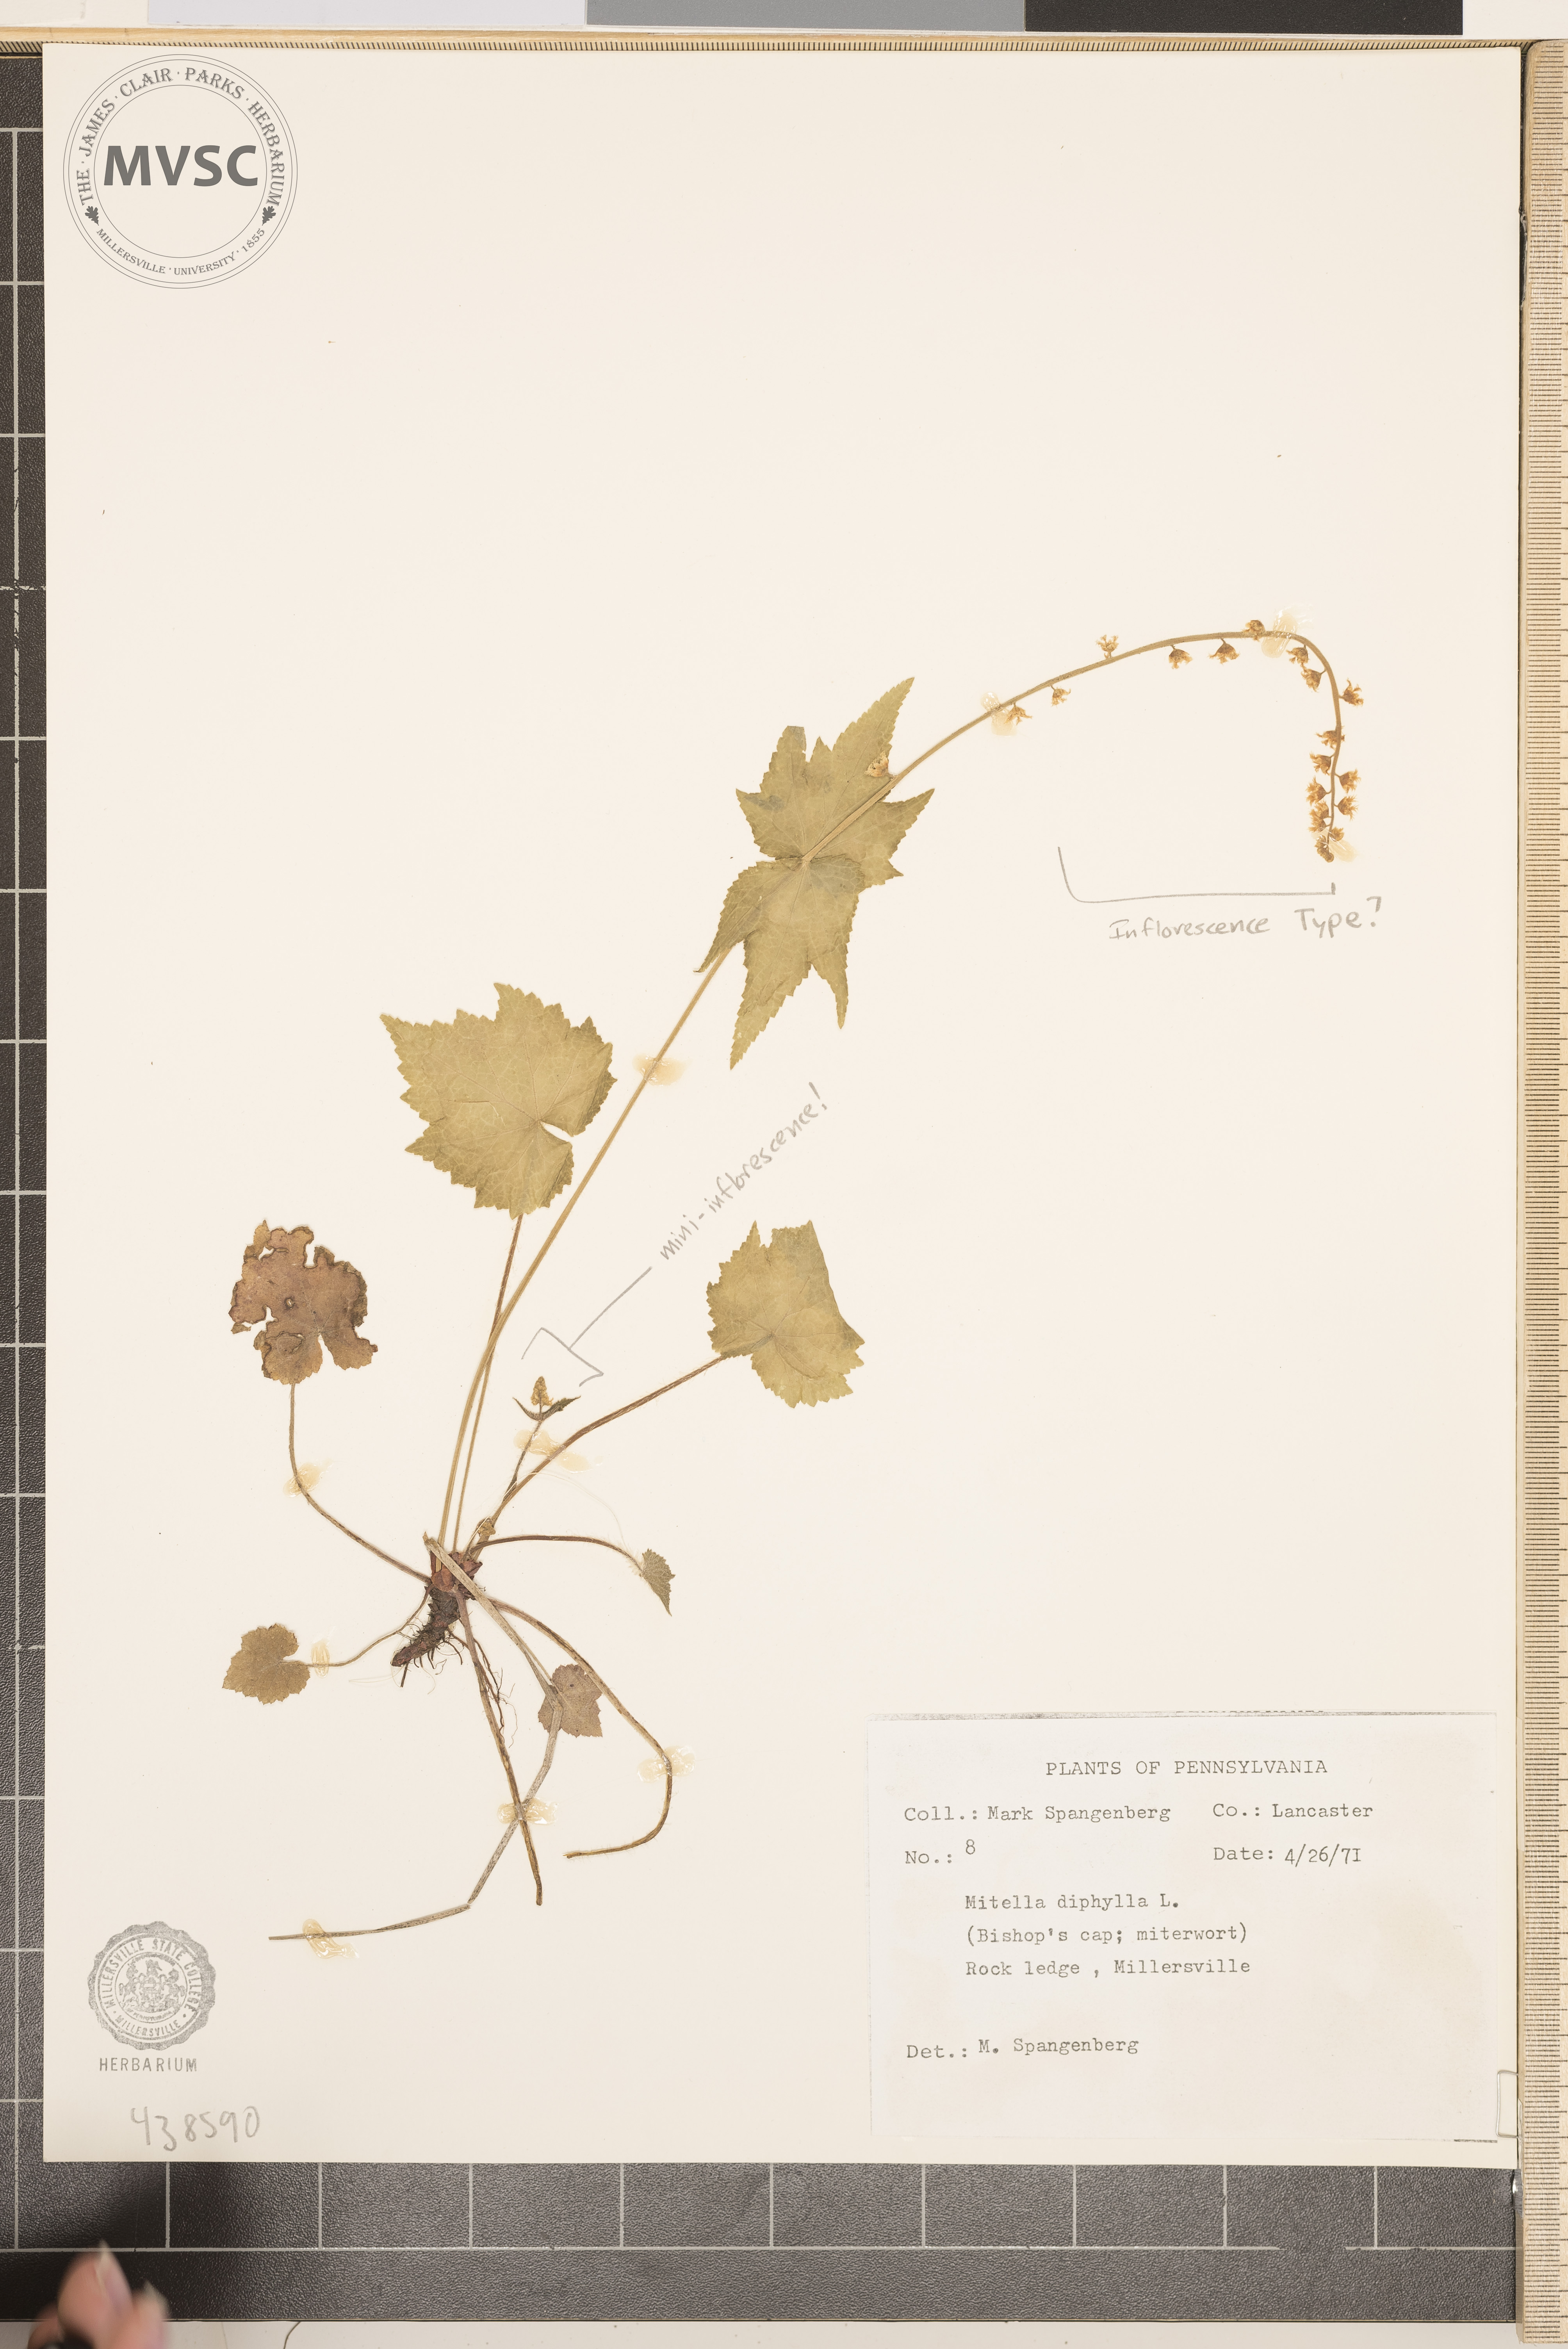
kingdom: Plantae
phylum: Tracheophyta
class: Magnoliopsida
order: Saxifragales
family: Saxifragaceae
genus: Mitella
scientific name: Mitella diphylla
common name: Coolwort
